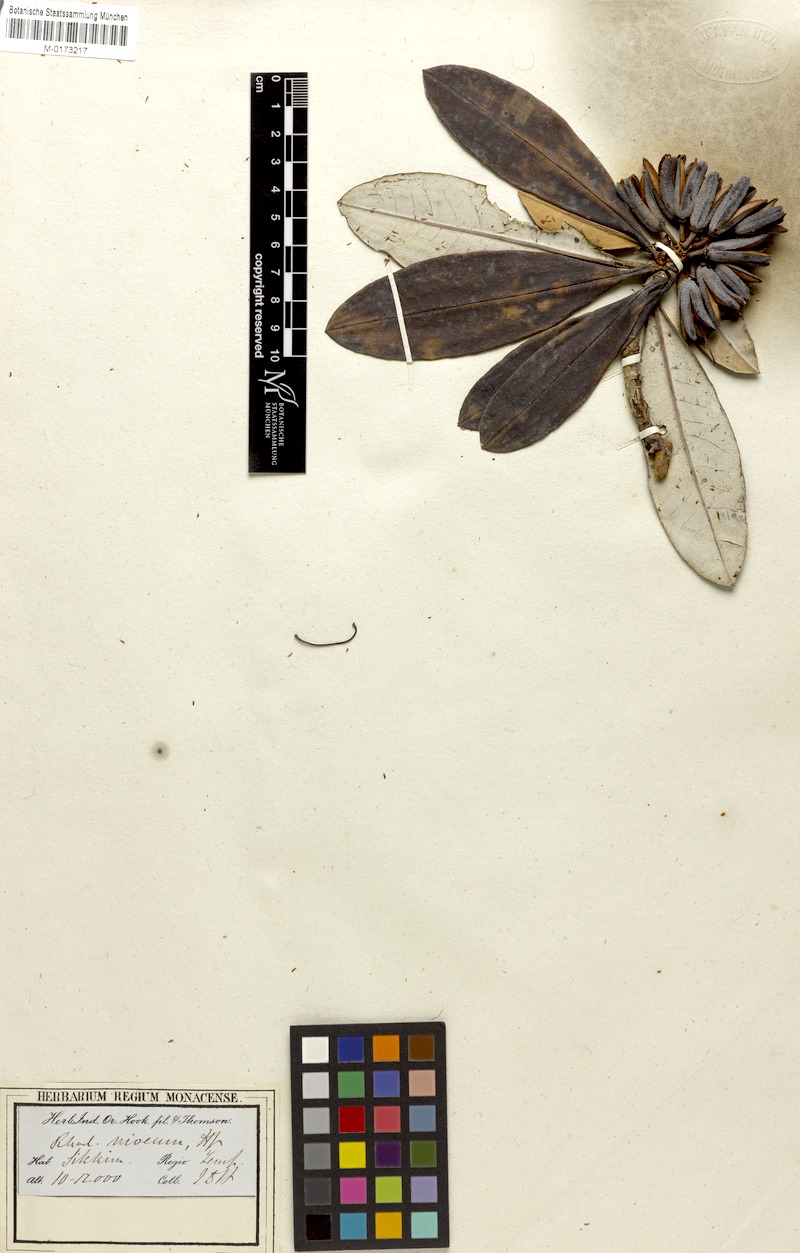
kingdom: Plantae
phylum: Tracheophyta
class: Magnoliopsida
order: Ericales
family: Ericaceae
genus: Rhododendron
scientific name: Rhododendron niveum
